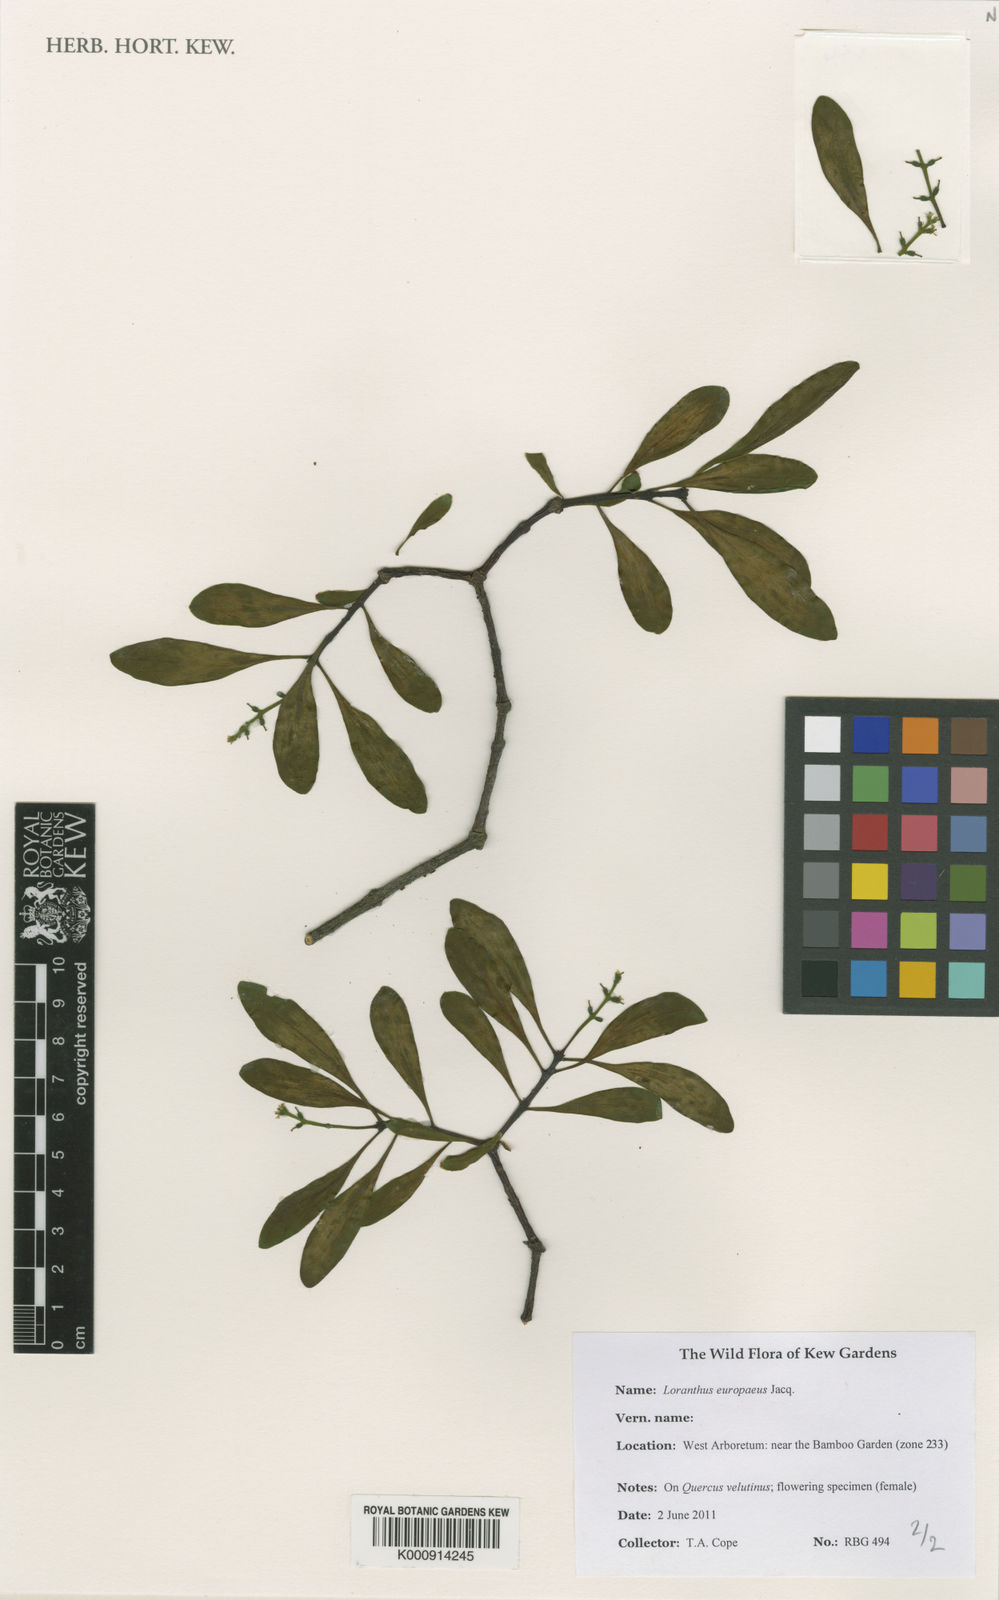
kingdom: Plantae
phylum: Tracheophyta
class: Magnoliopsida
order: Santalales
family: Loranthaceae
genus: Loranthus
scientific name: Loranthus europaeus
